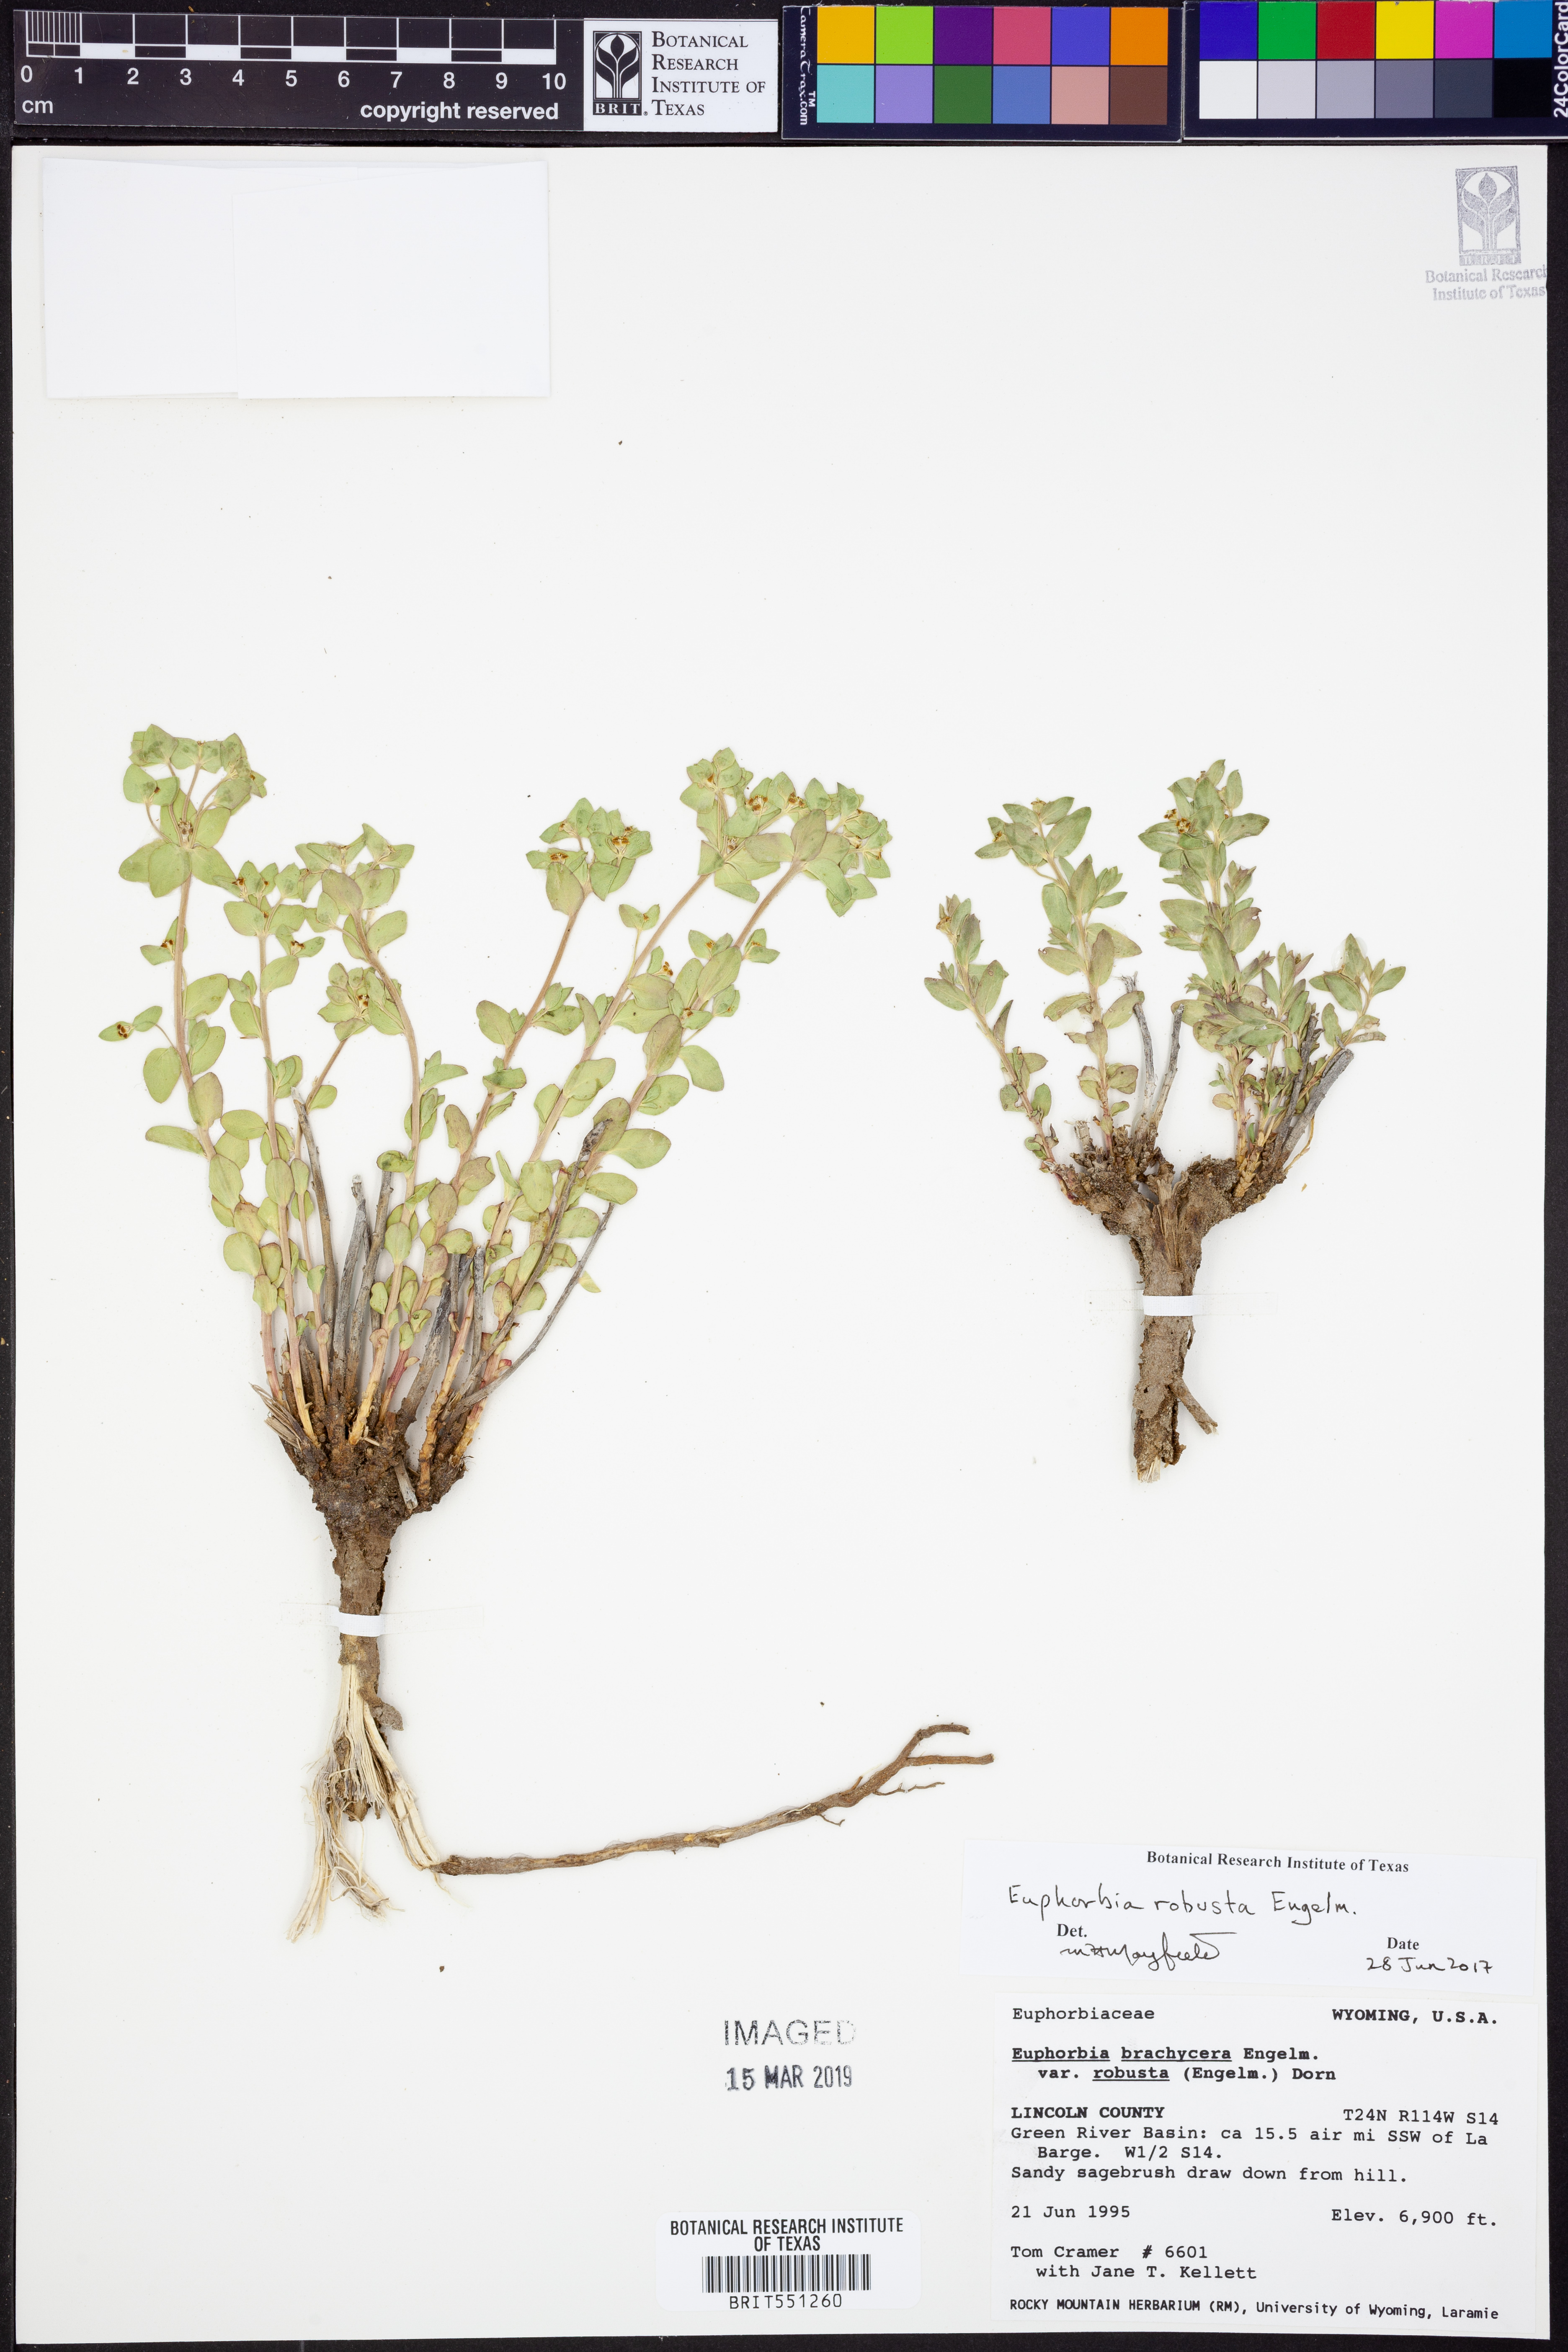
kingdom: Plantae
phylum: Tracheophyta
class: Magnoliopsida
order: Malpighiales
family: Euphorbiaceae
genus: Euphorbia
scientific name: Euphorbia brachycera
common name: Shorthorn spurge
